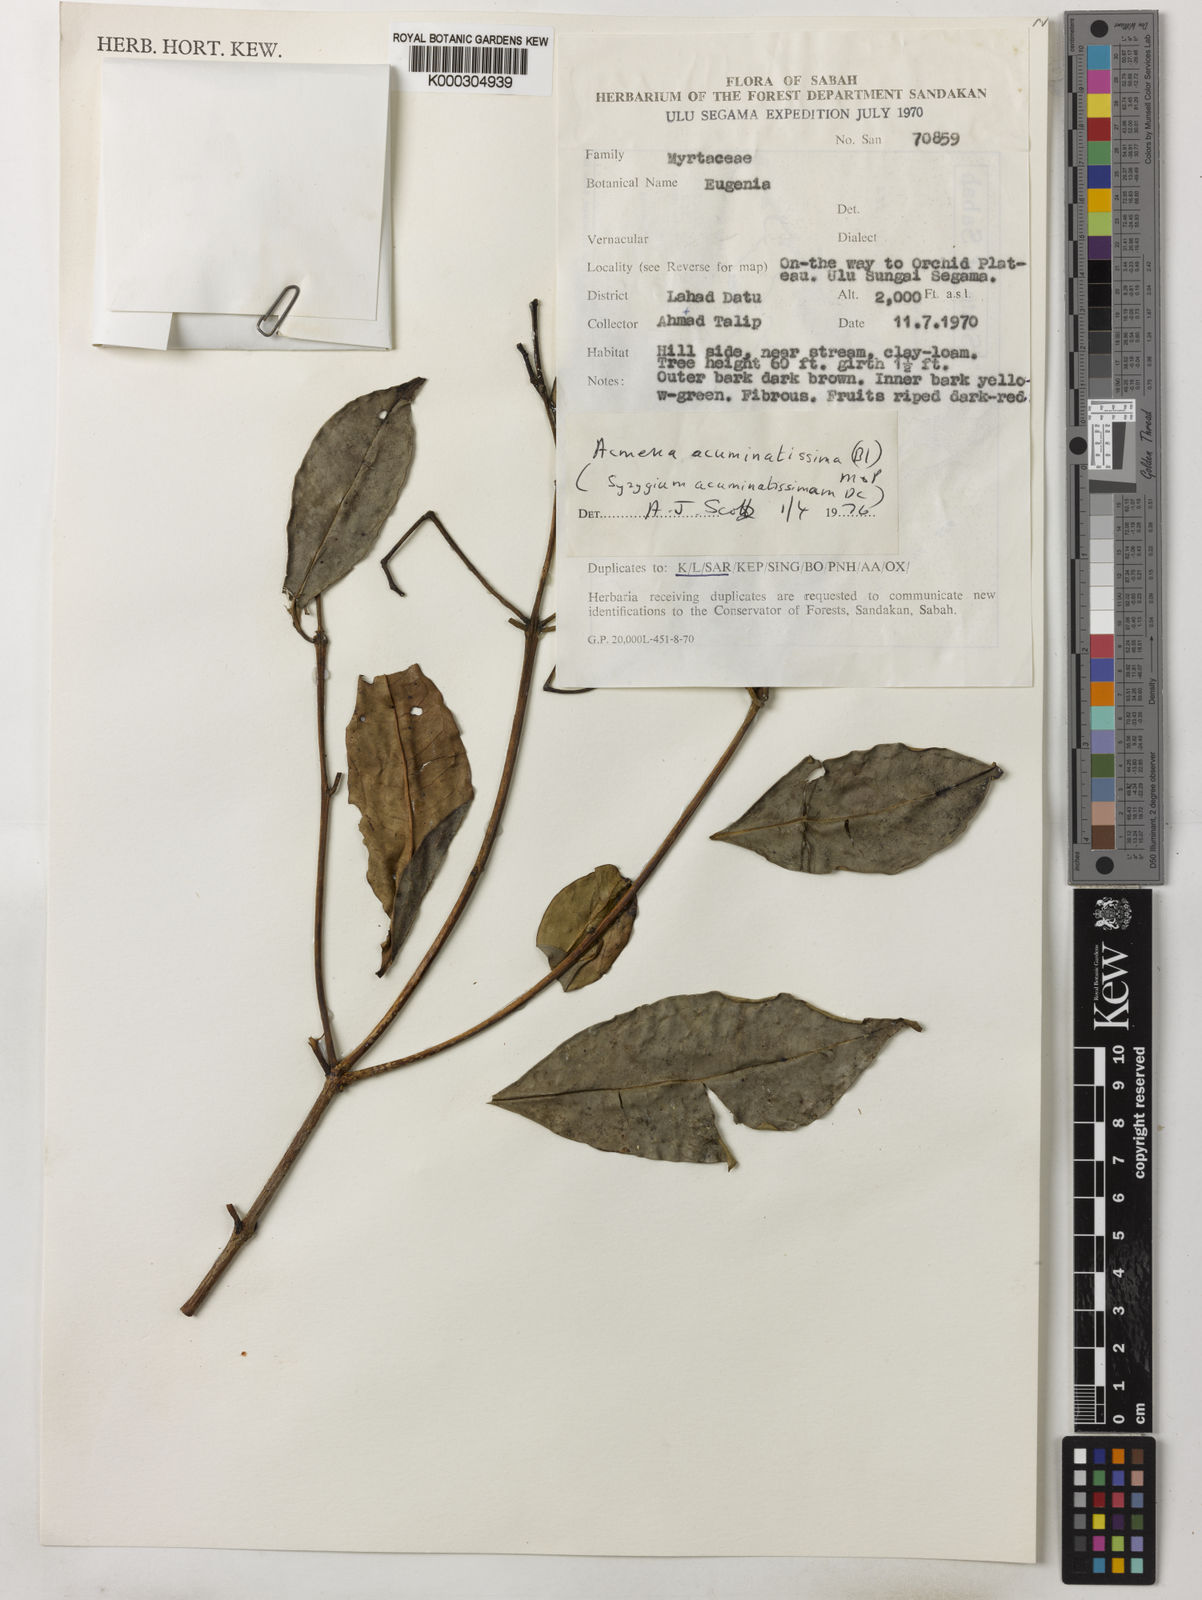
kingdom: Plantae
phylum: Tracheophyta
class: Magnoliopsida
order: Myrtales
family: Myrtaceae
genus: Syzygium
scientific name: Syzygium acuminatissimum
